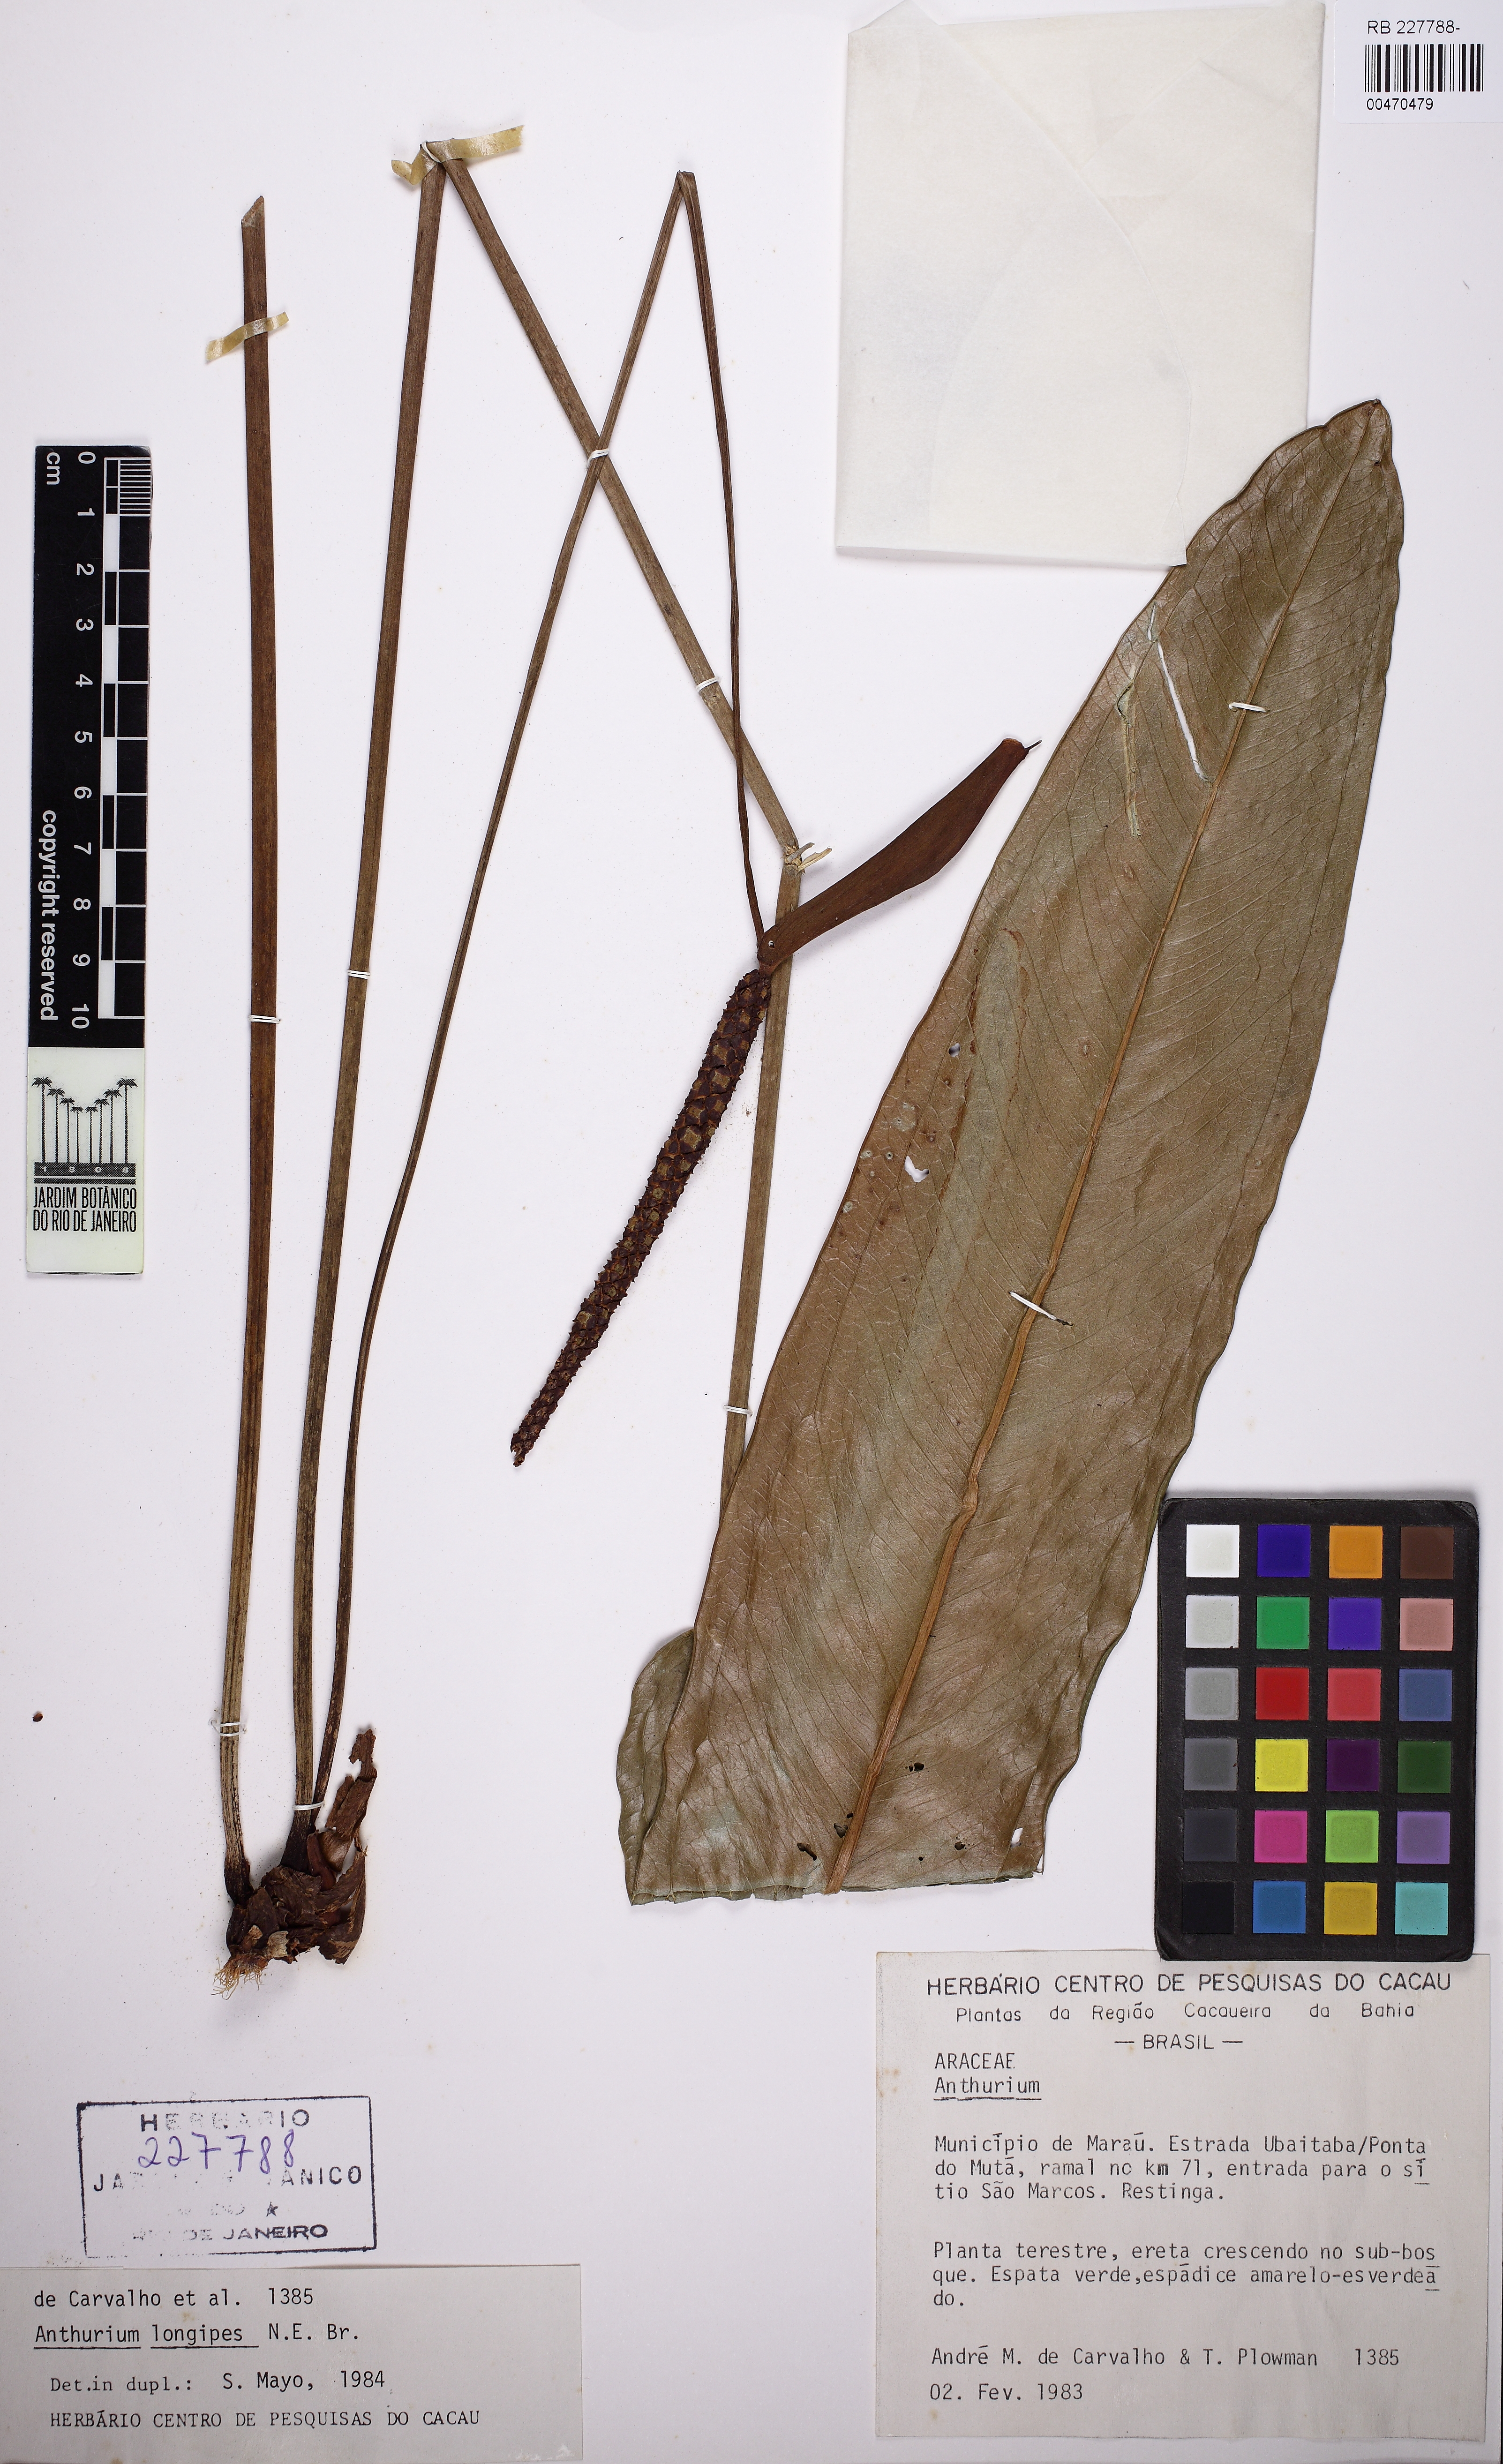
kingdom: Plantae
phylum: Tracheophyta
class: Liliopsida
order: Alismatales
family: Araceae
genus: Anthurium
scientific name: Anthurium longipes
